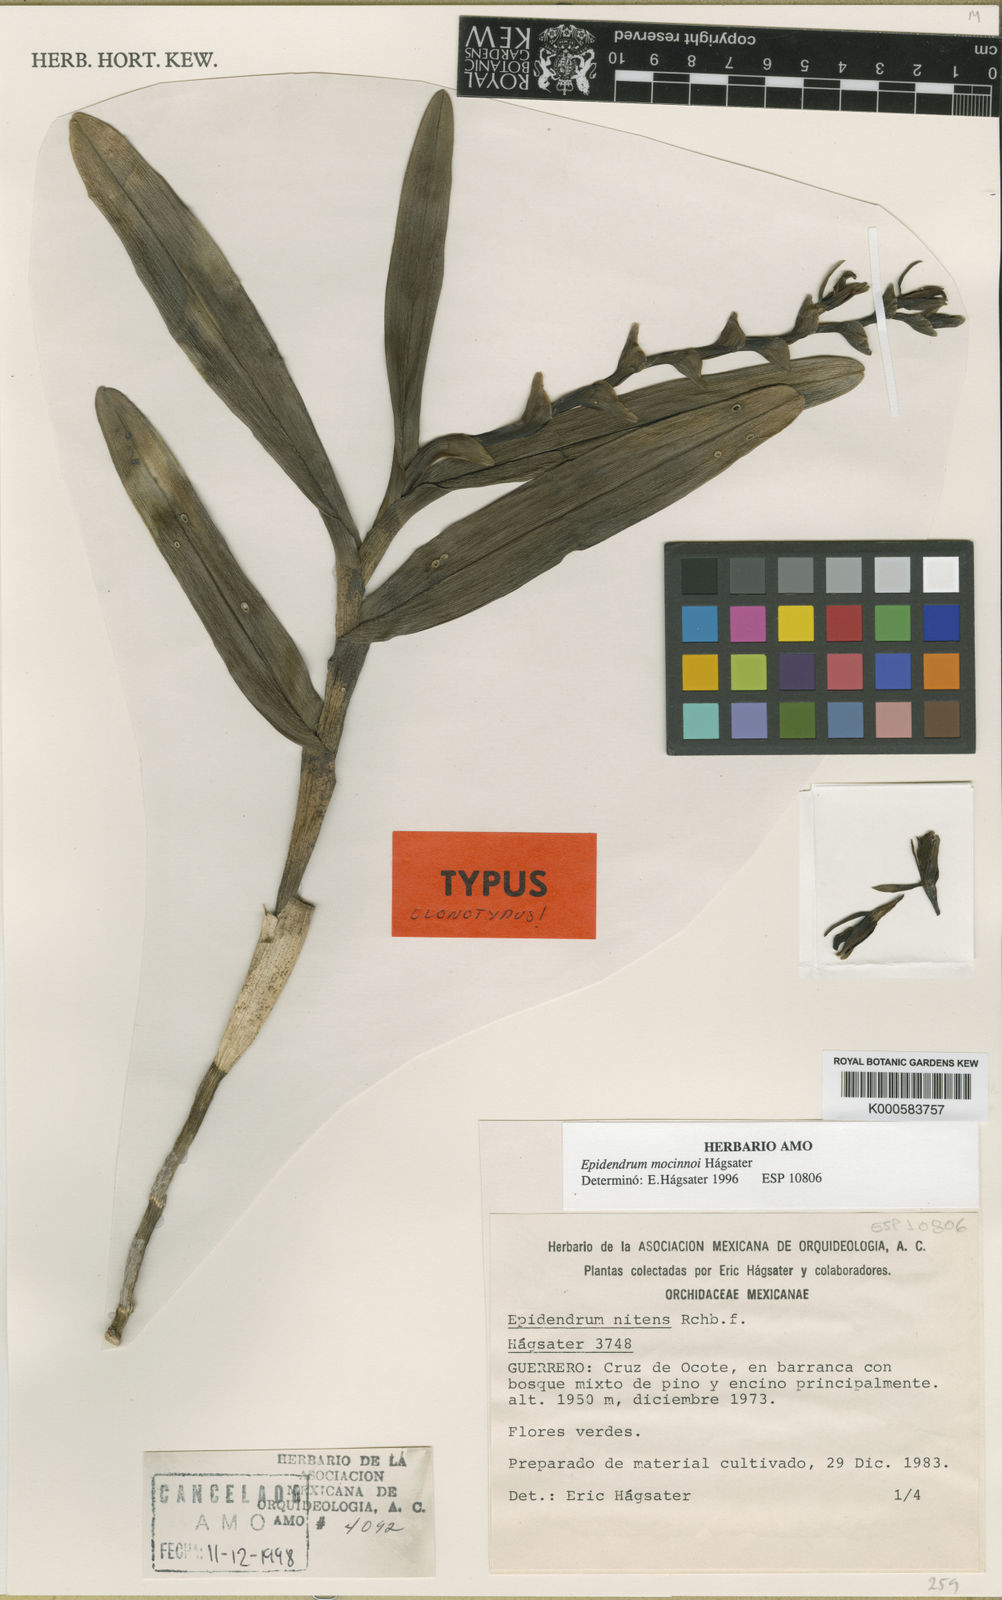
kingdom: Plantae
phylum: Tracheophyta
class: Liliopsida
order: Asparagales
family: Orchidaceae
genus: Epidendrum
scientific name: Epidendrum
